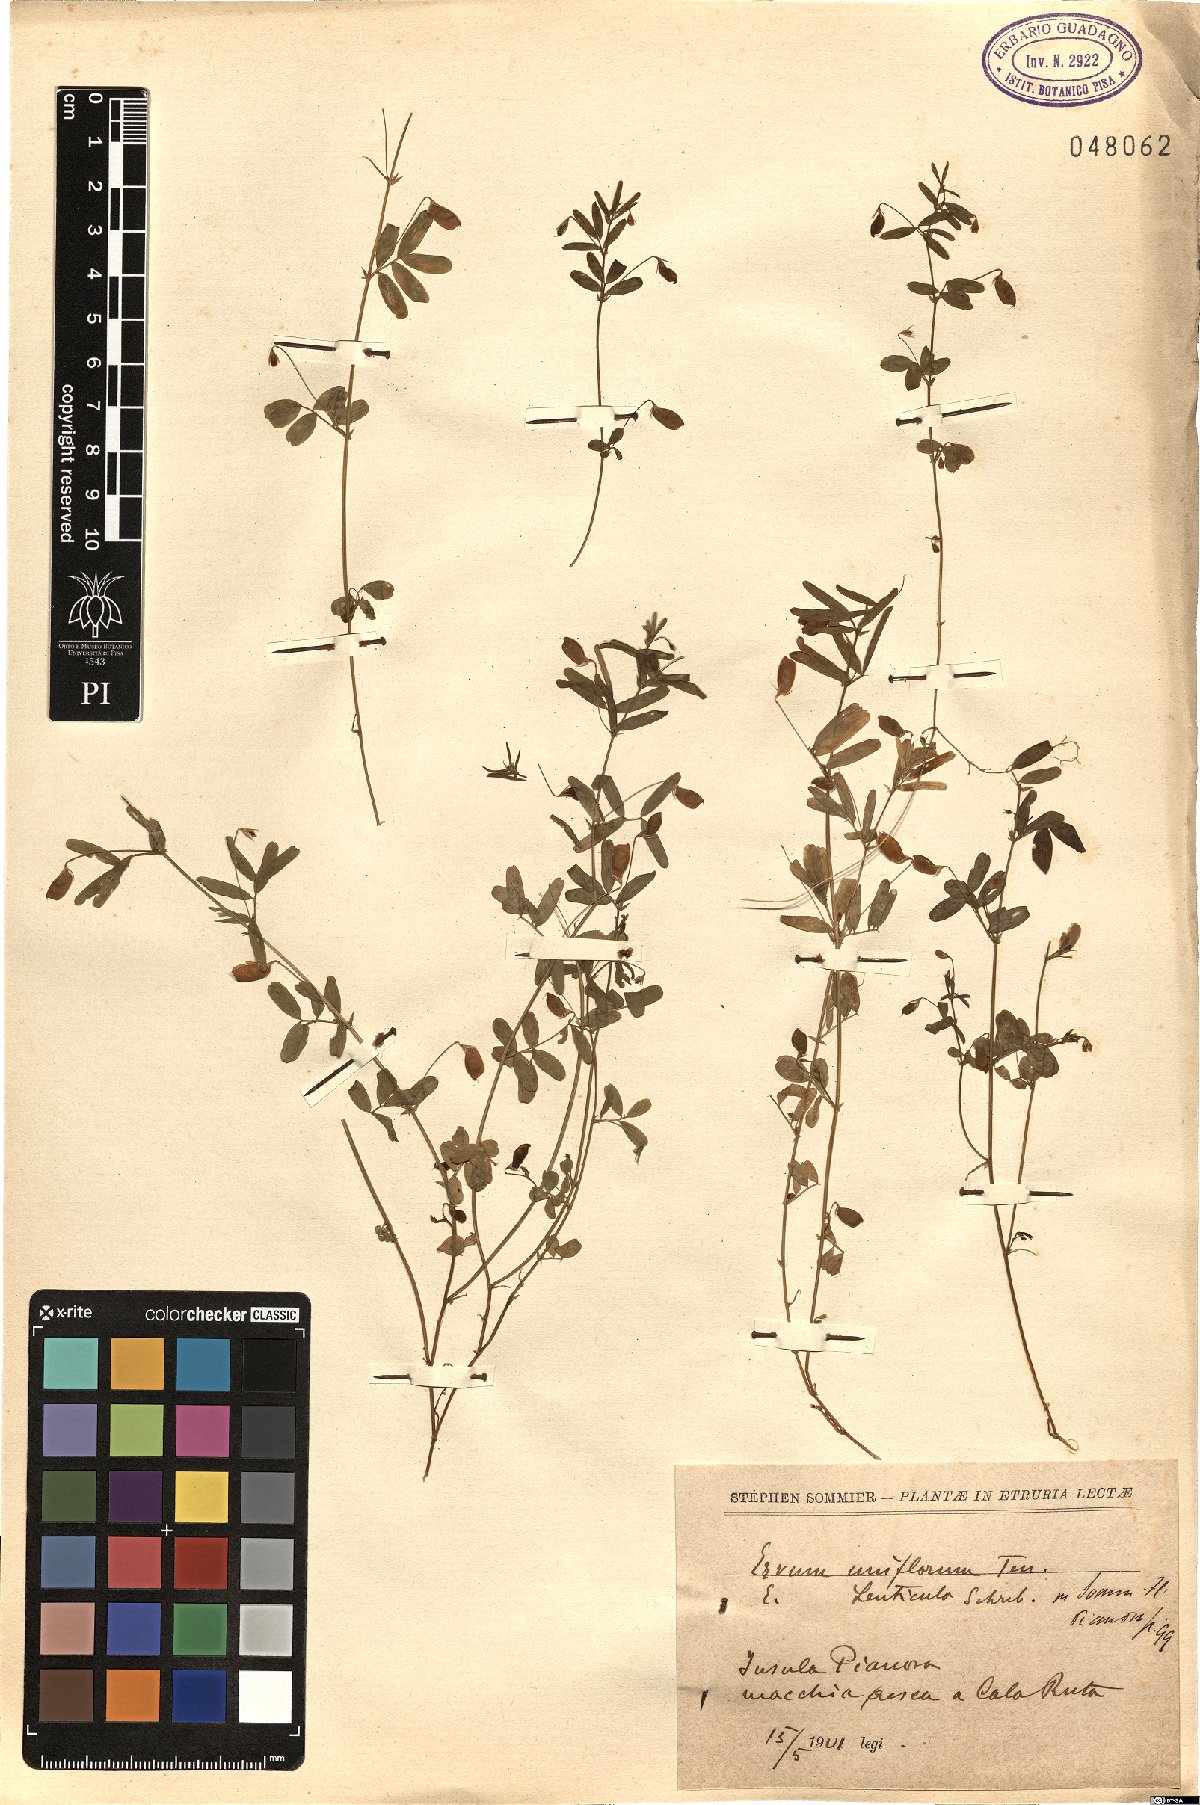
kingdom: Plantae
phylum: Tracheophyta
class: Magnoliopsida
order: Fabales
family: Fabaceae
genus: Vicia
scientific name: Vicia lenticula
